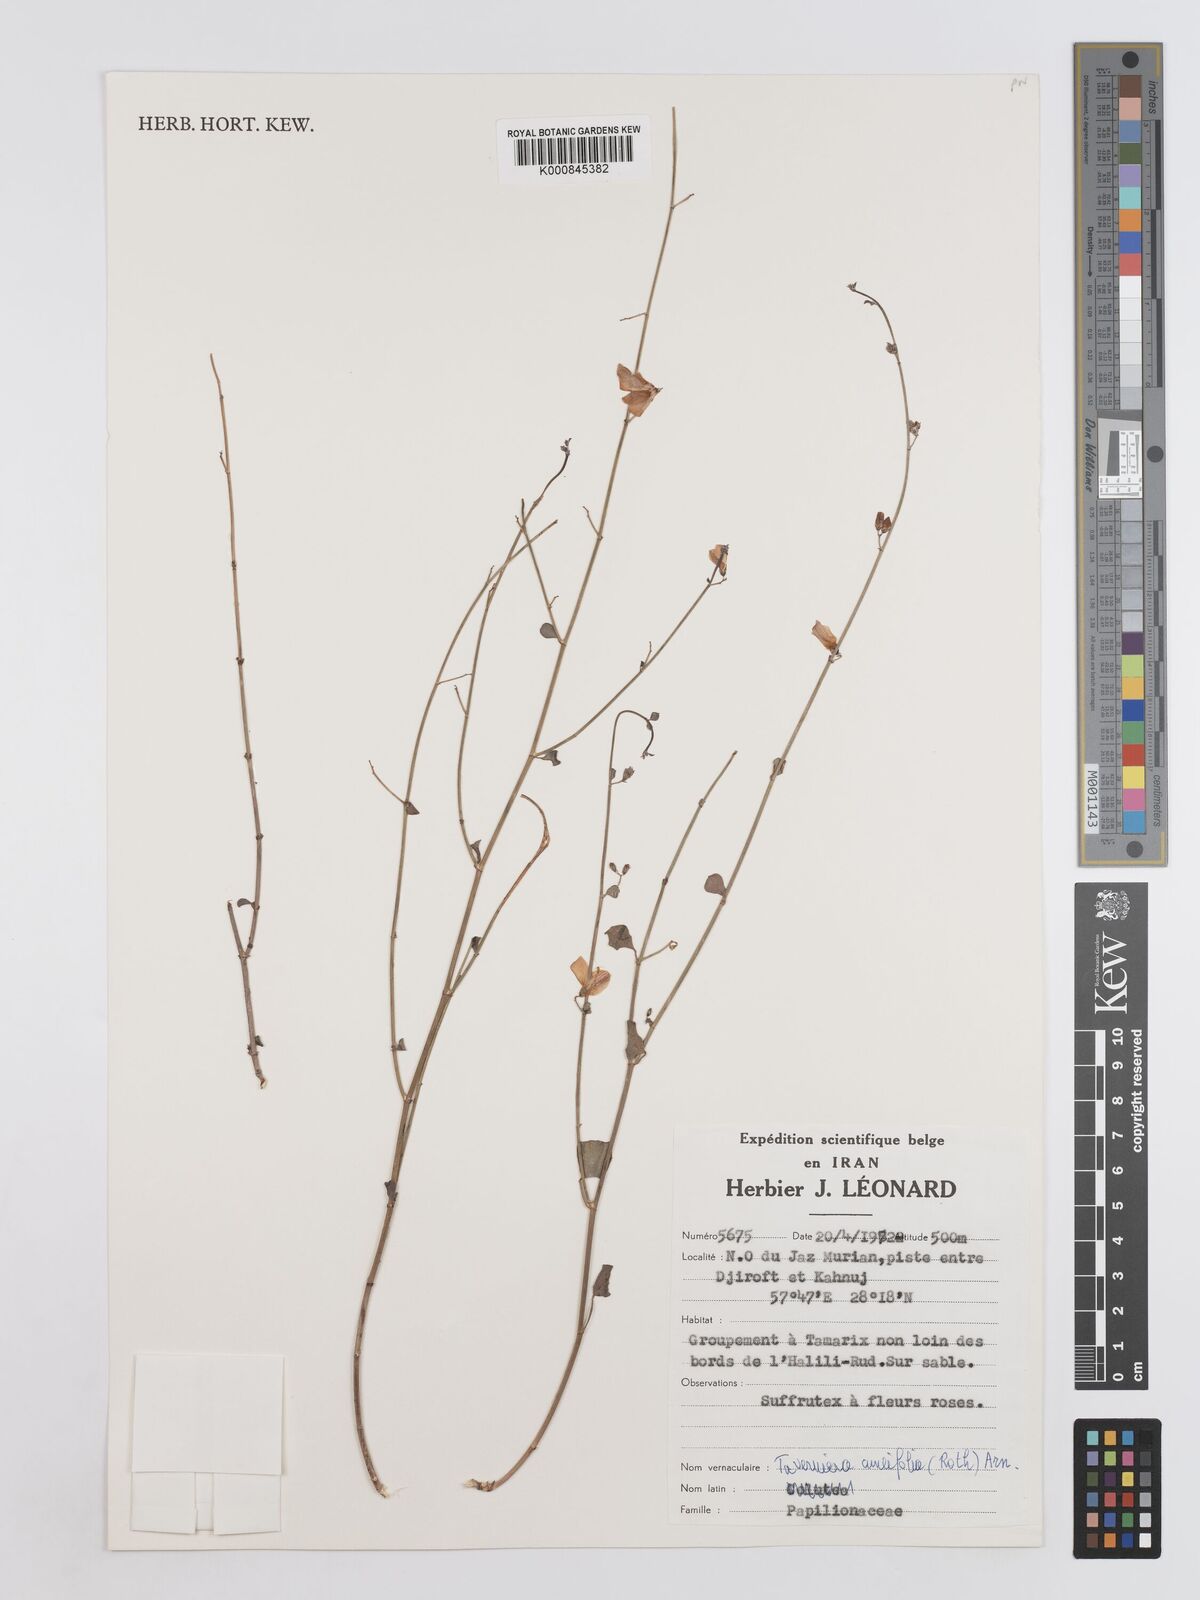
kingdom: Plantae
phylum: Tracheophyta
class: Magnoliopsida
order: Fabales
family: Fabaceae
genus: Taverniera
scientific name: Taverniera cuneifolia
